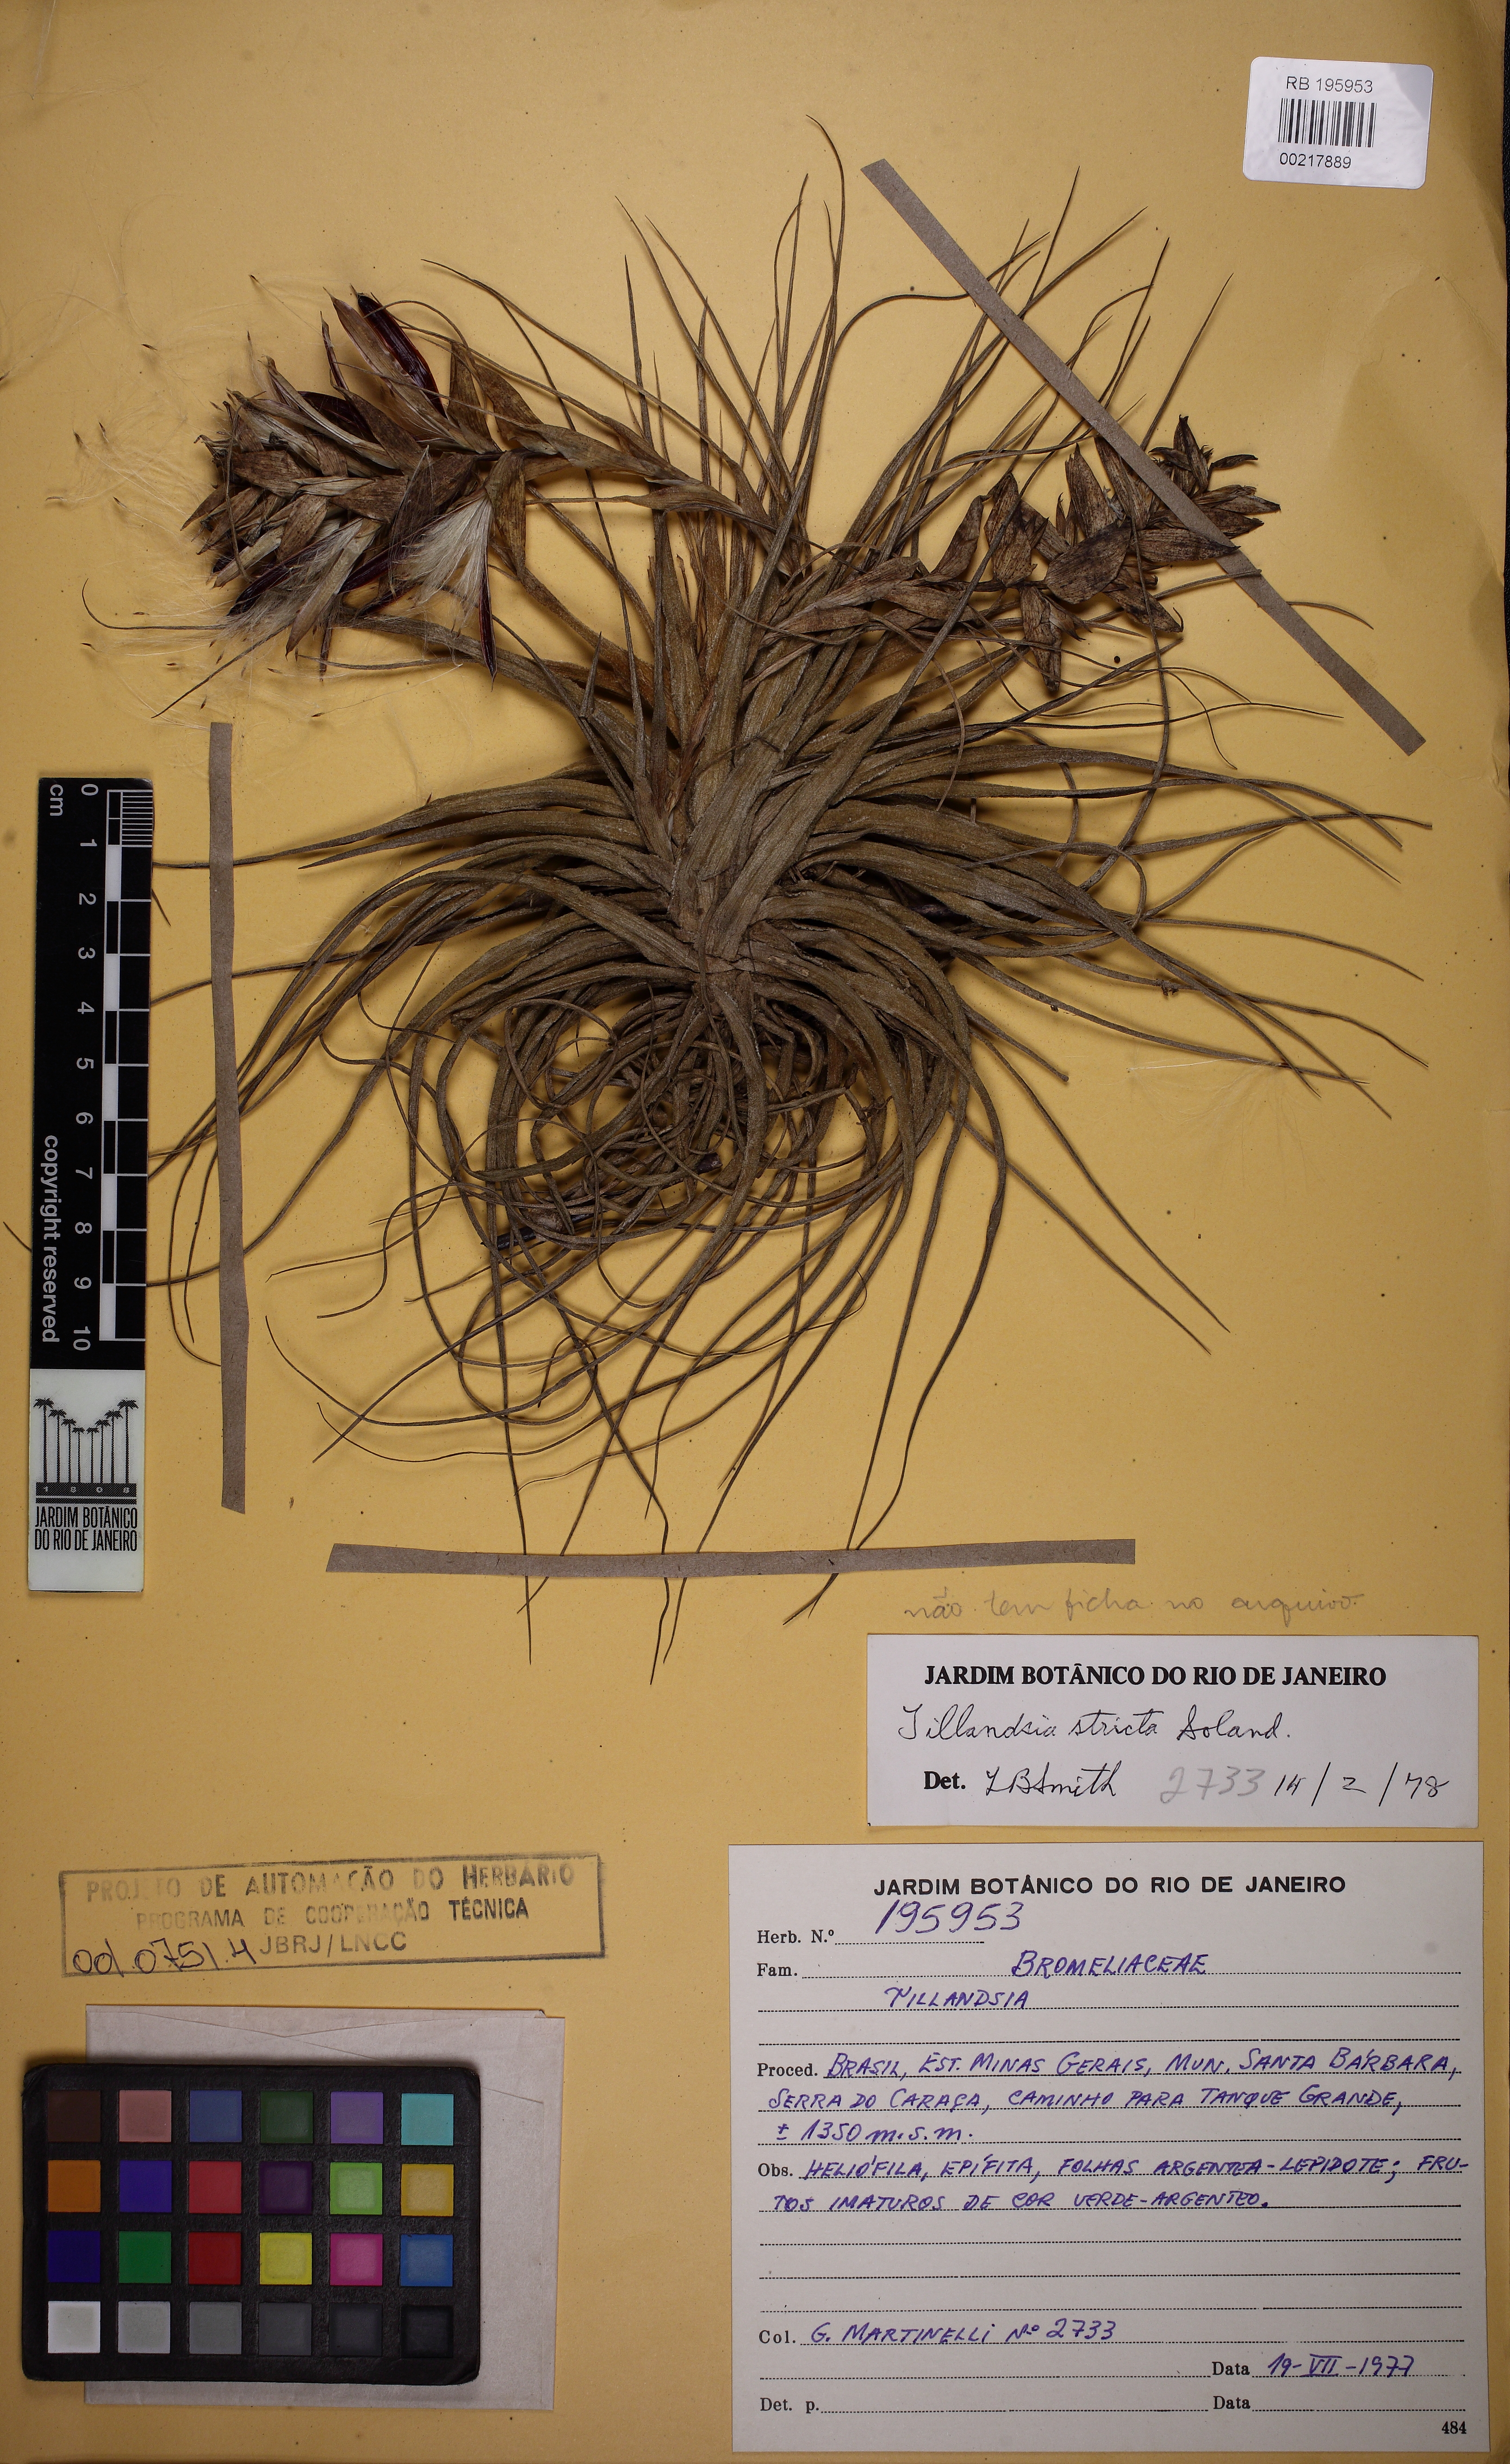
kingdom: Plantae
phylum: Tracheophyta
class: Liliopsida
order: Poales
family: Bromeliaceae
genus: Tillandsia
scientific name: Tillandsia stricta
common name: Airplant
